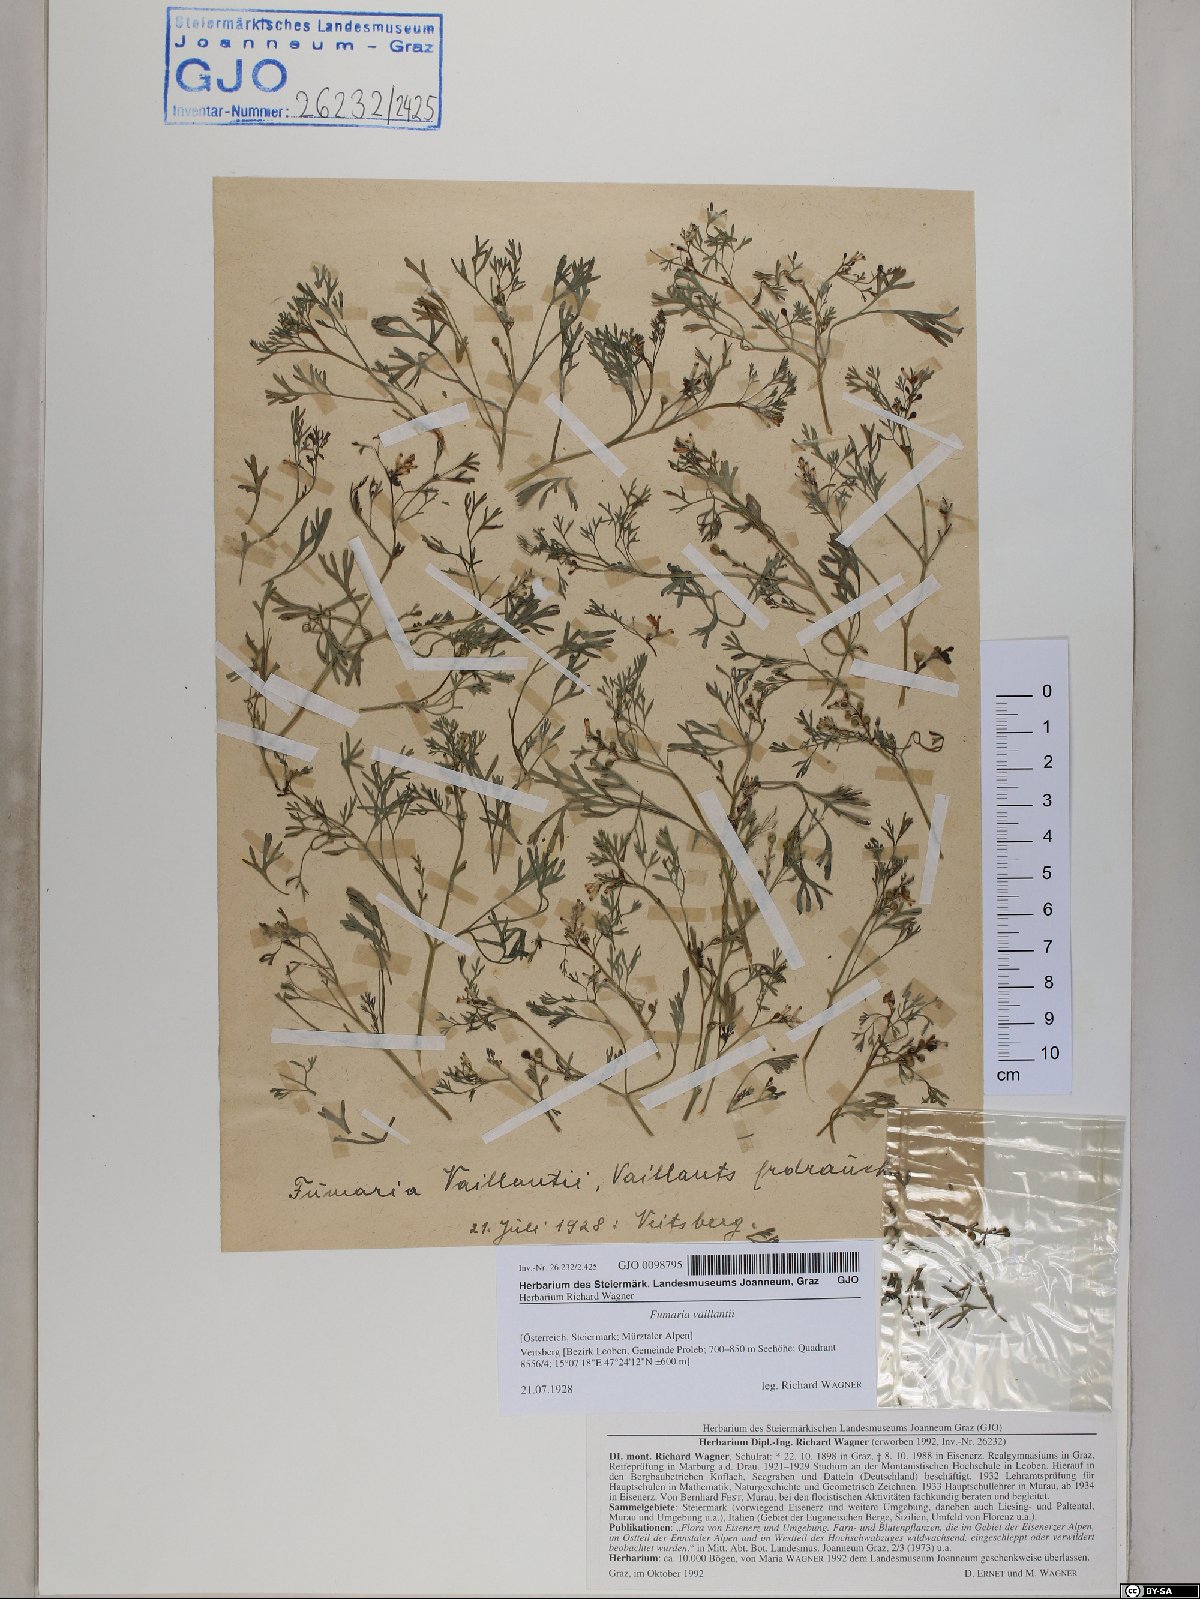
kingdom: Plantae
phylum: Tracheophyta
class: Magnoliopsida
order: Ranunculales
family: Papaveraceae
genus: Fumaria
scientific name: Fumaria vaillantii
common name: Few-flowered fumitory
